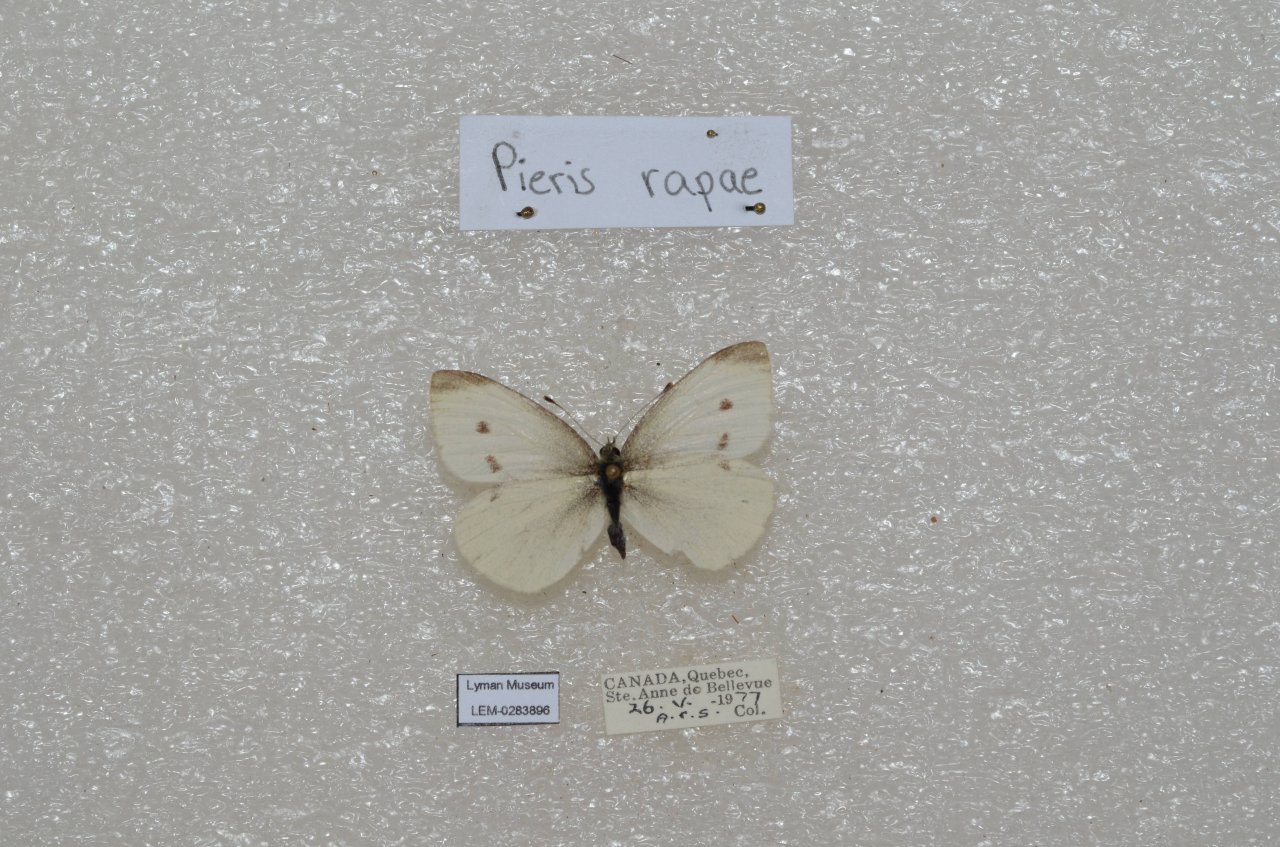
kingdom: Animalia
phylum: Arthropoda
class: Insecta
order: Lepidoptera
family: Pieridae
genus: Pieris
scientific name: Pieris rapae
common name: Cabbage White
